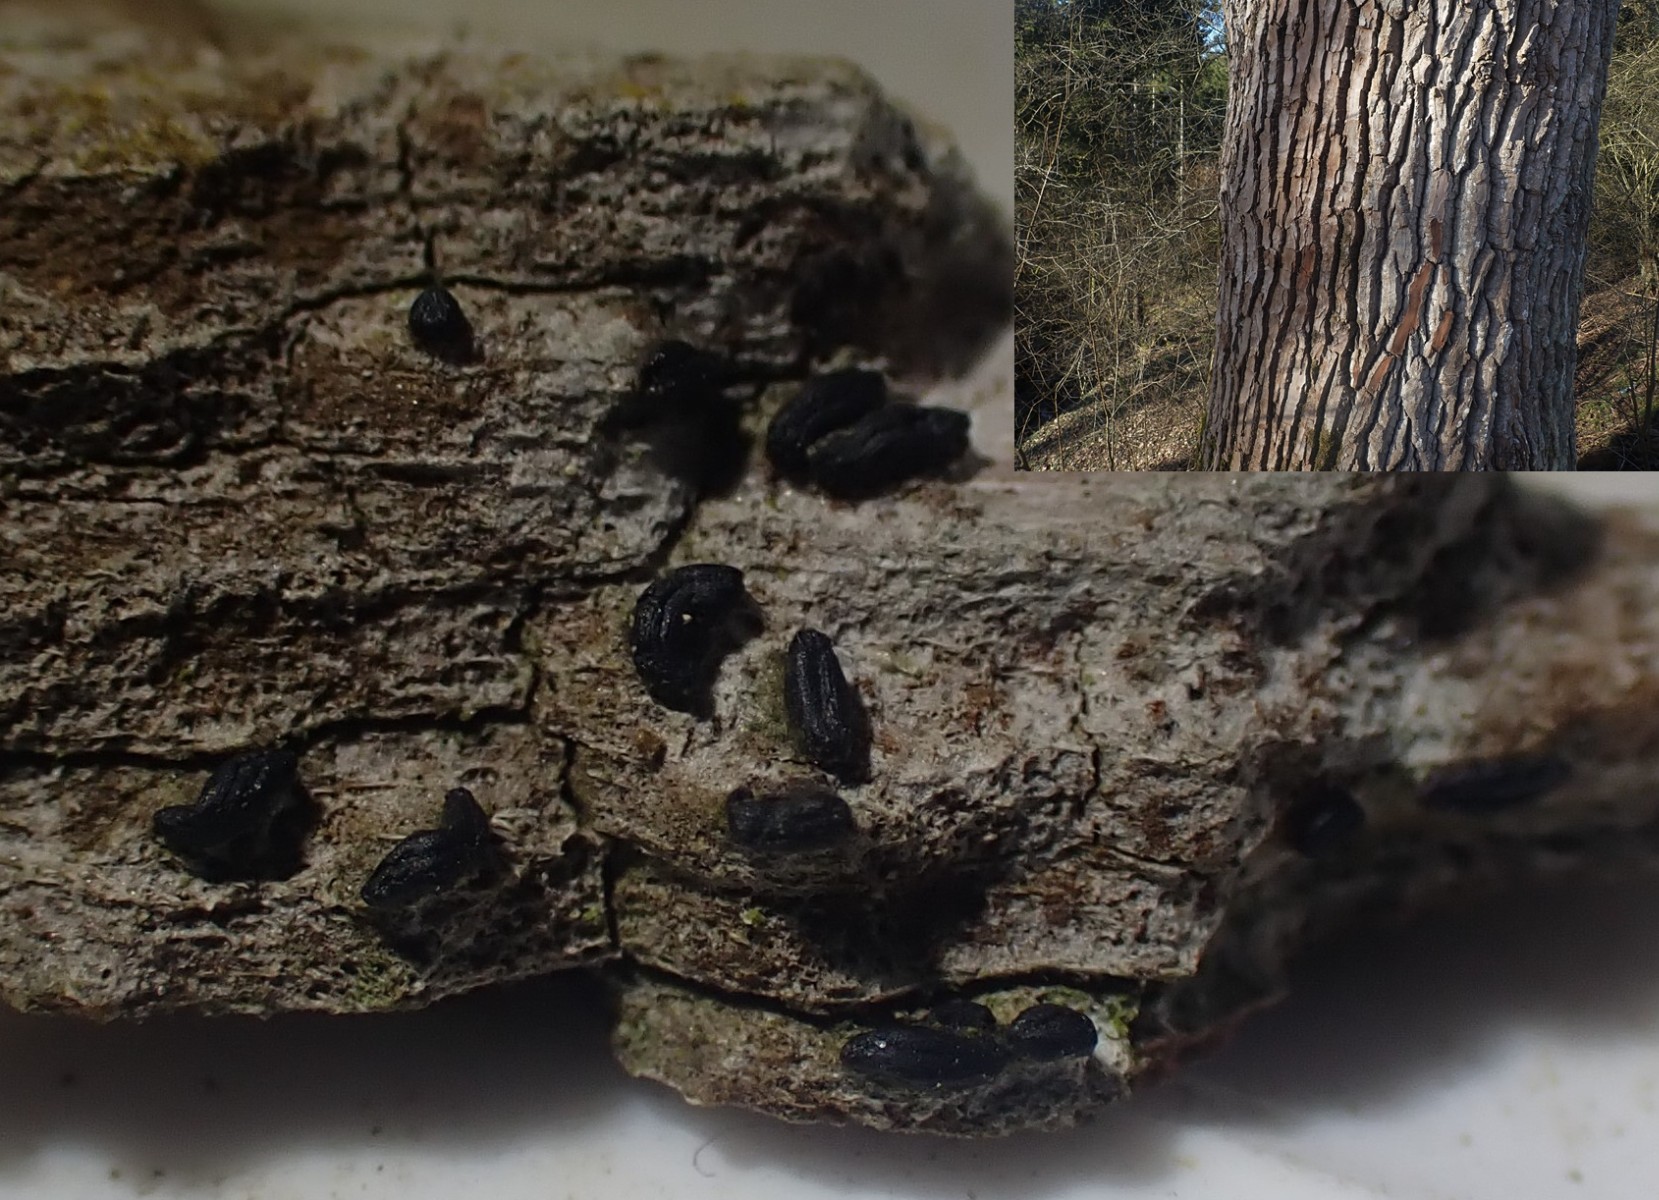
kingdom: Fungi
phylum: Ascomycota
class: Dothideomycetes
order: Hysteriales
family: Hysteriaceae
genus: Hysterium
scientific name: Hysterium acuminatum
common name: almindelig kulmund
